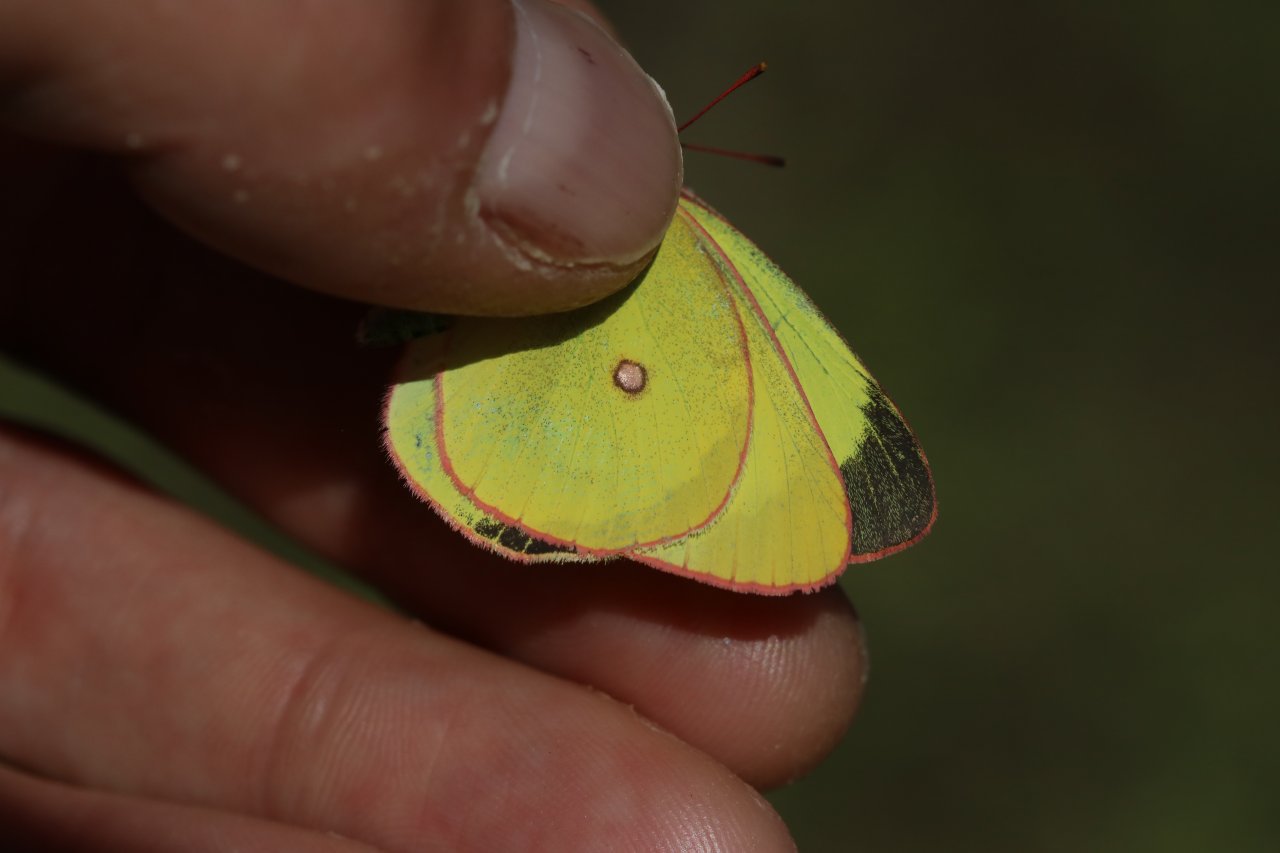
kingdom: Animalia
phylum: Arthropoda
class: Insecta
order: Lepidoptera
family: Pieridae
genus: Colias
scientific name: Colias interior
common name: Pink-edged Sulphur
